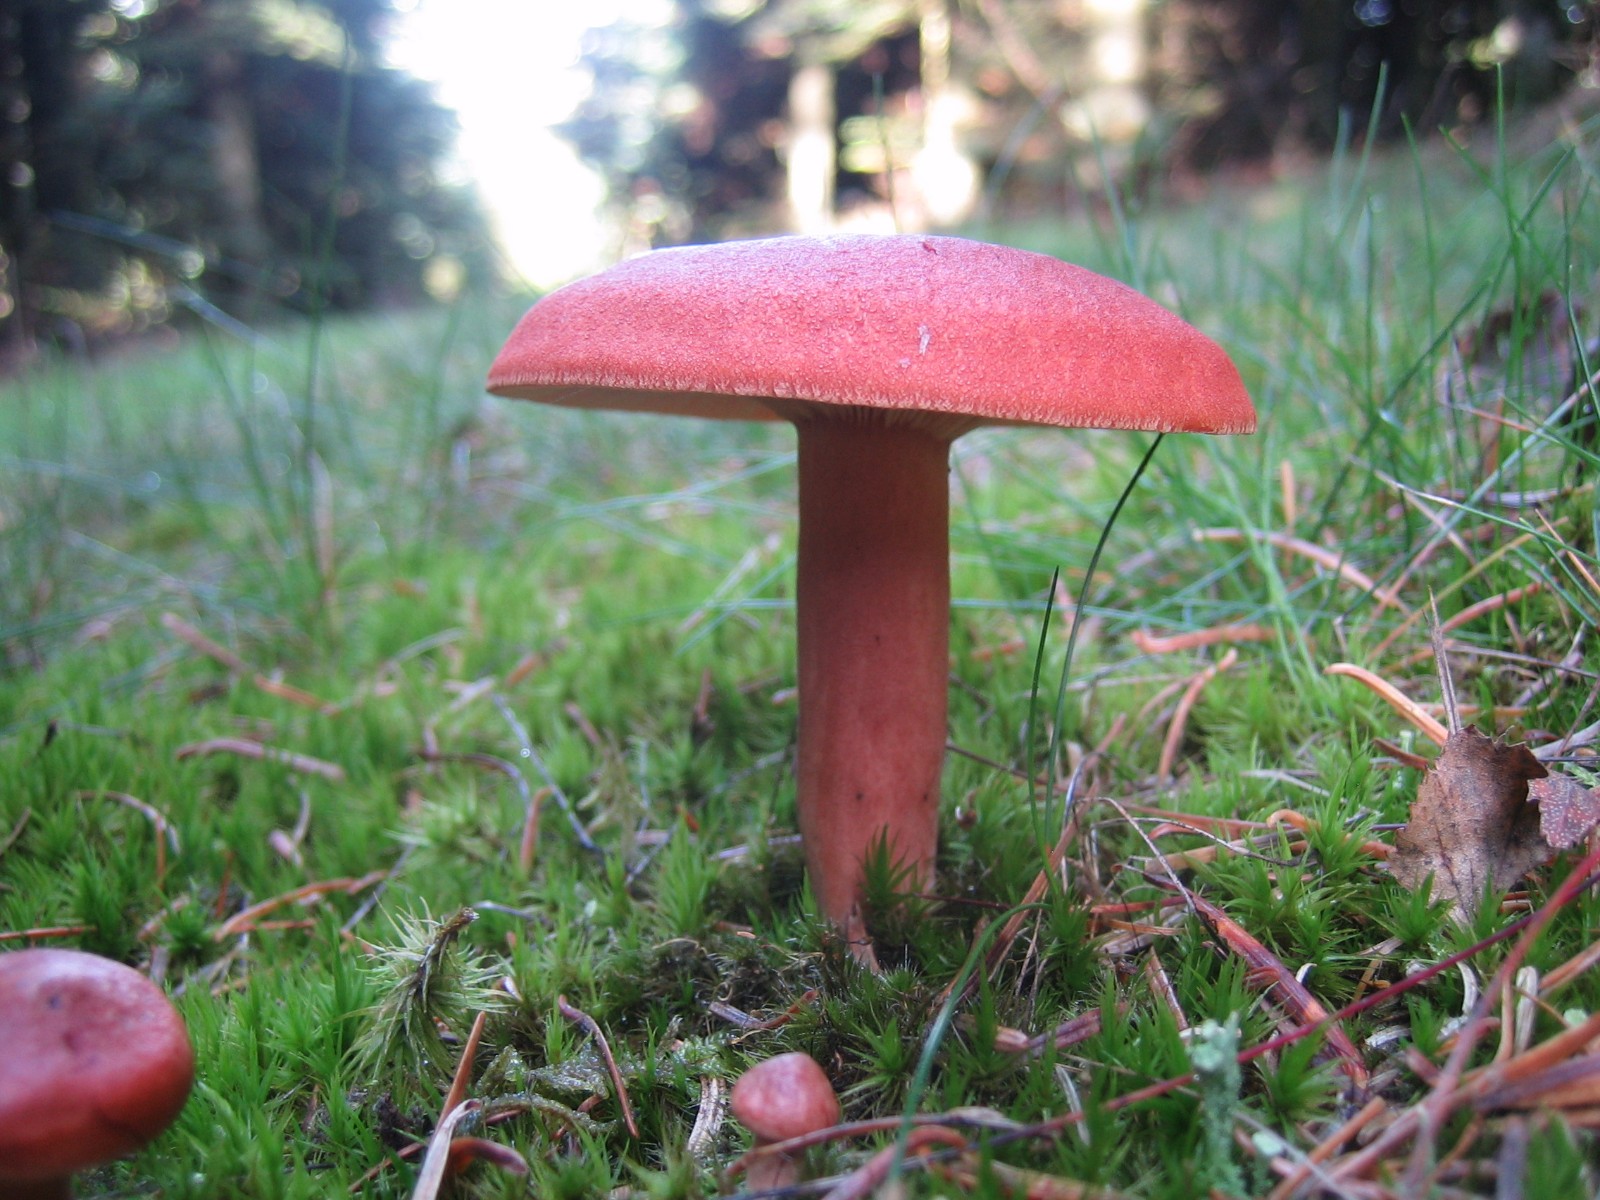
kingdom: Fungi
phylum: Basidiomycota
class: Agaricomycetes
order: Russulales
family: Russulaceae
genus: Lactarius
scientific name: Lactarius rufus
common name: rødbrun mælkehat
